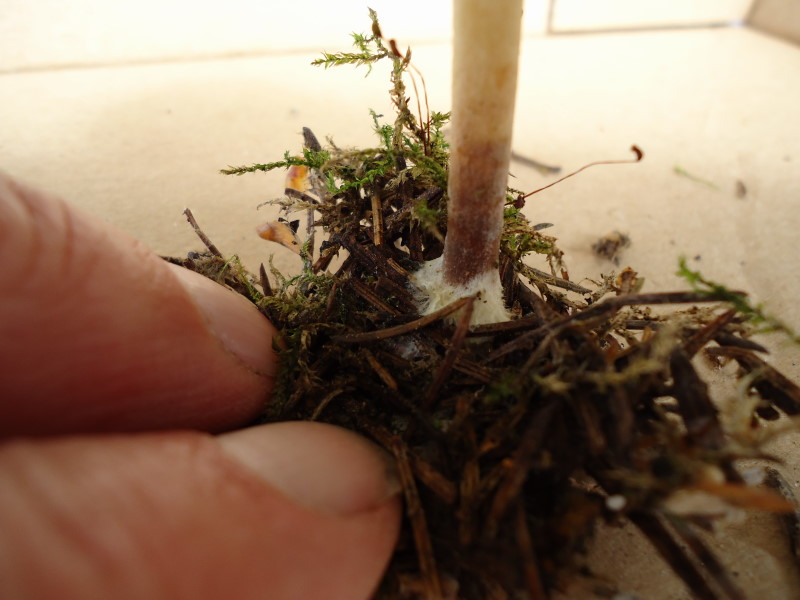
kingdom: Fungi
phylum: Basidiomycota
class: Agaricomycetes
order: Agaricales
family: Omphalotaceae
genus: Collybiopsis
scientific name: Collybiopsis peronata
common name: bestøvlet fladhat
